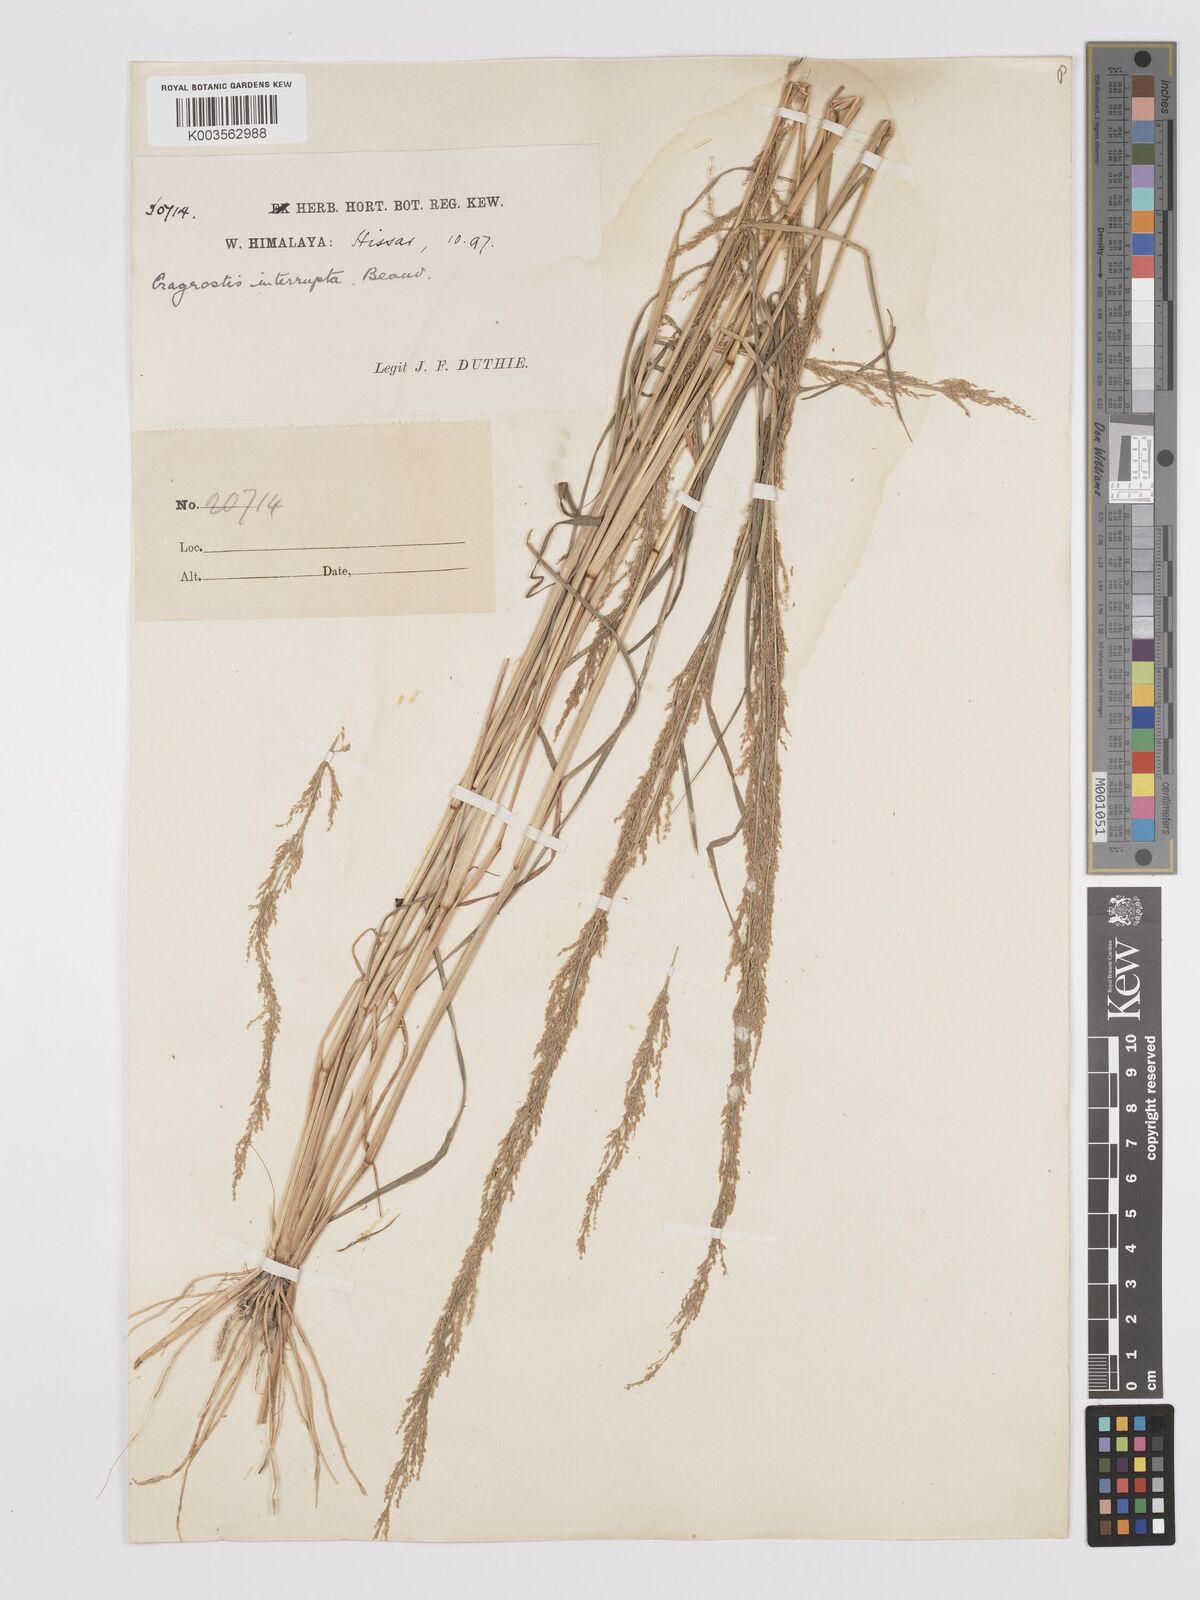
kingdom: Plantae
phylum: Tracheophyta
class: Liliopsida
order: Poales
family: Poaceae
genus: Eragrostis
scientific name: Eragrostis japonica
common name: Pond lovegrass
